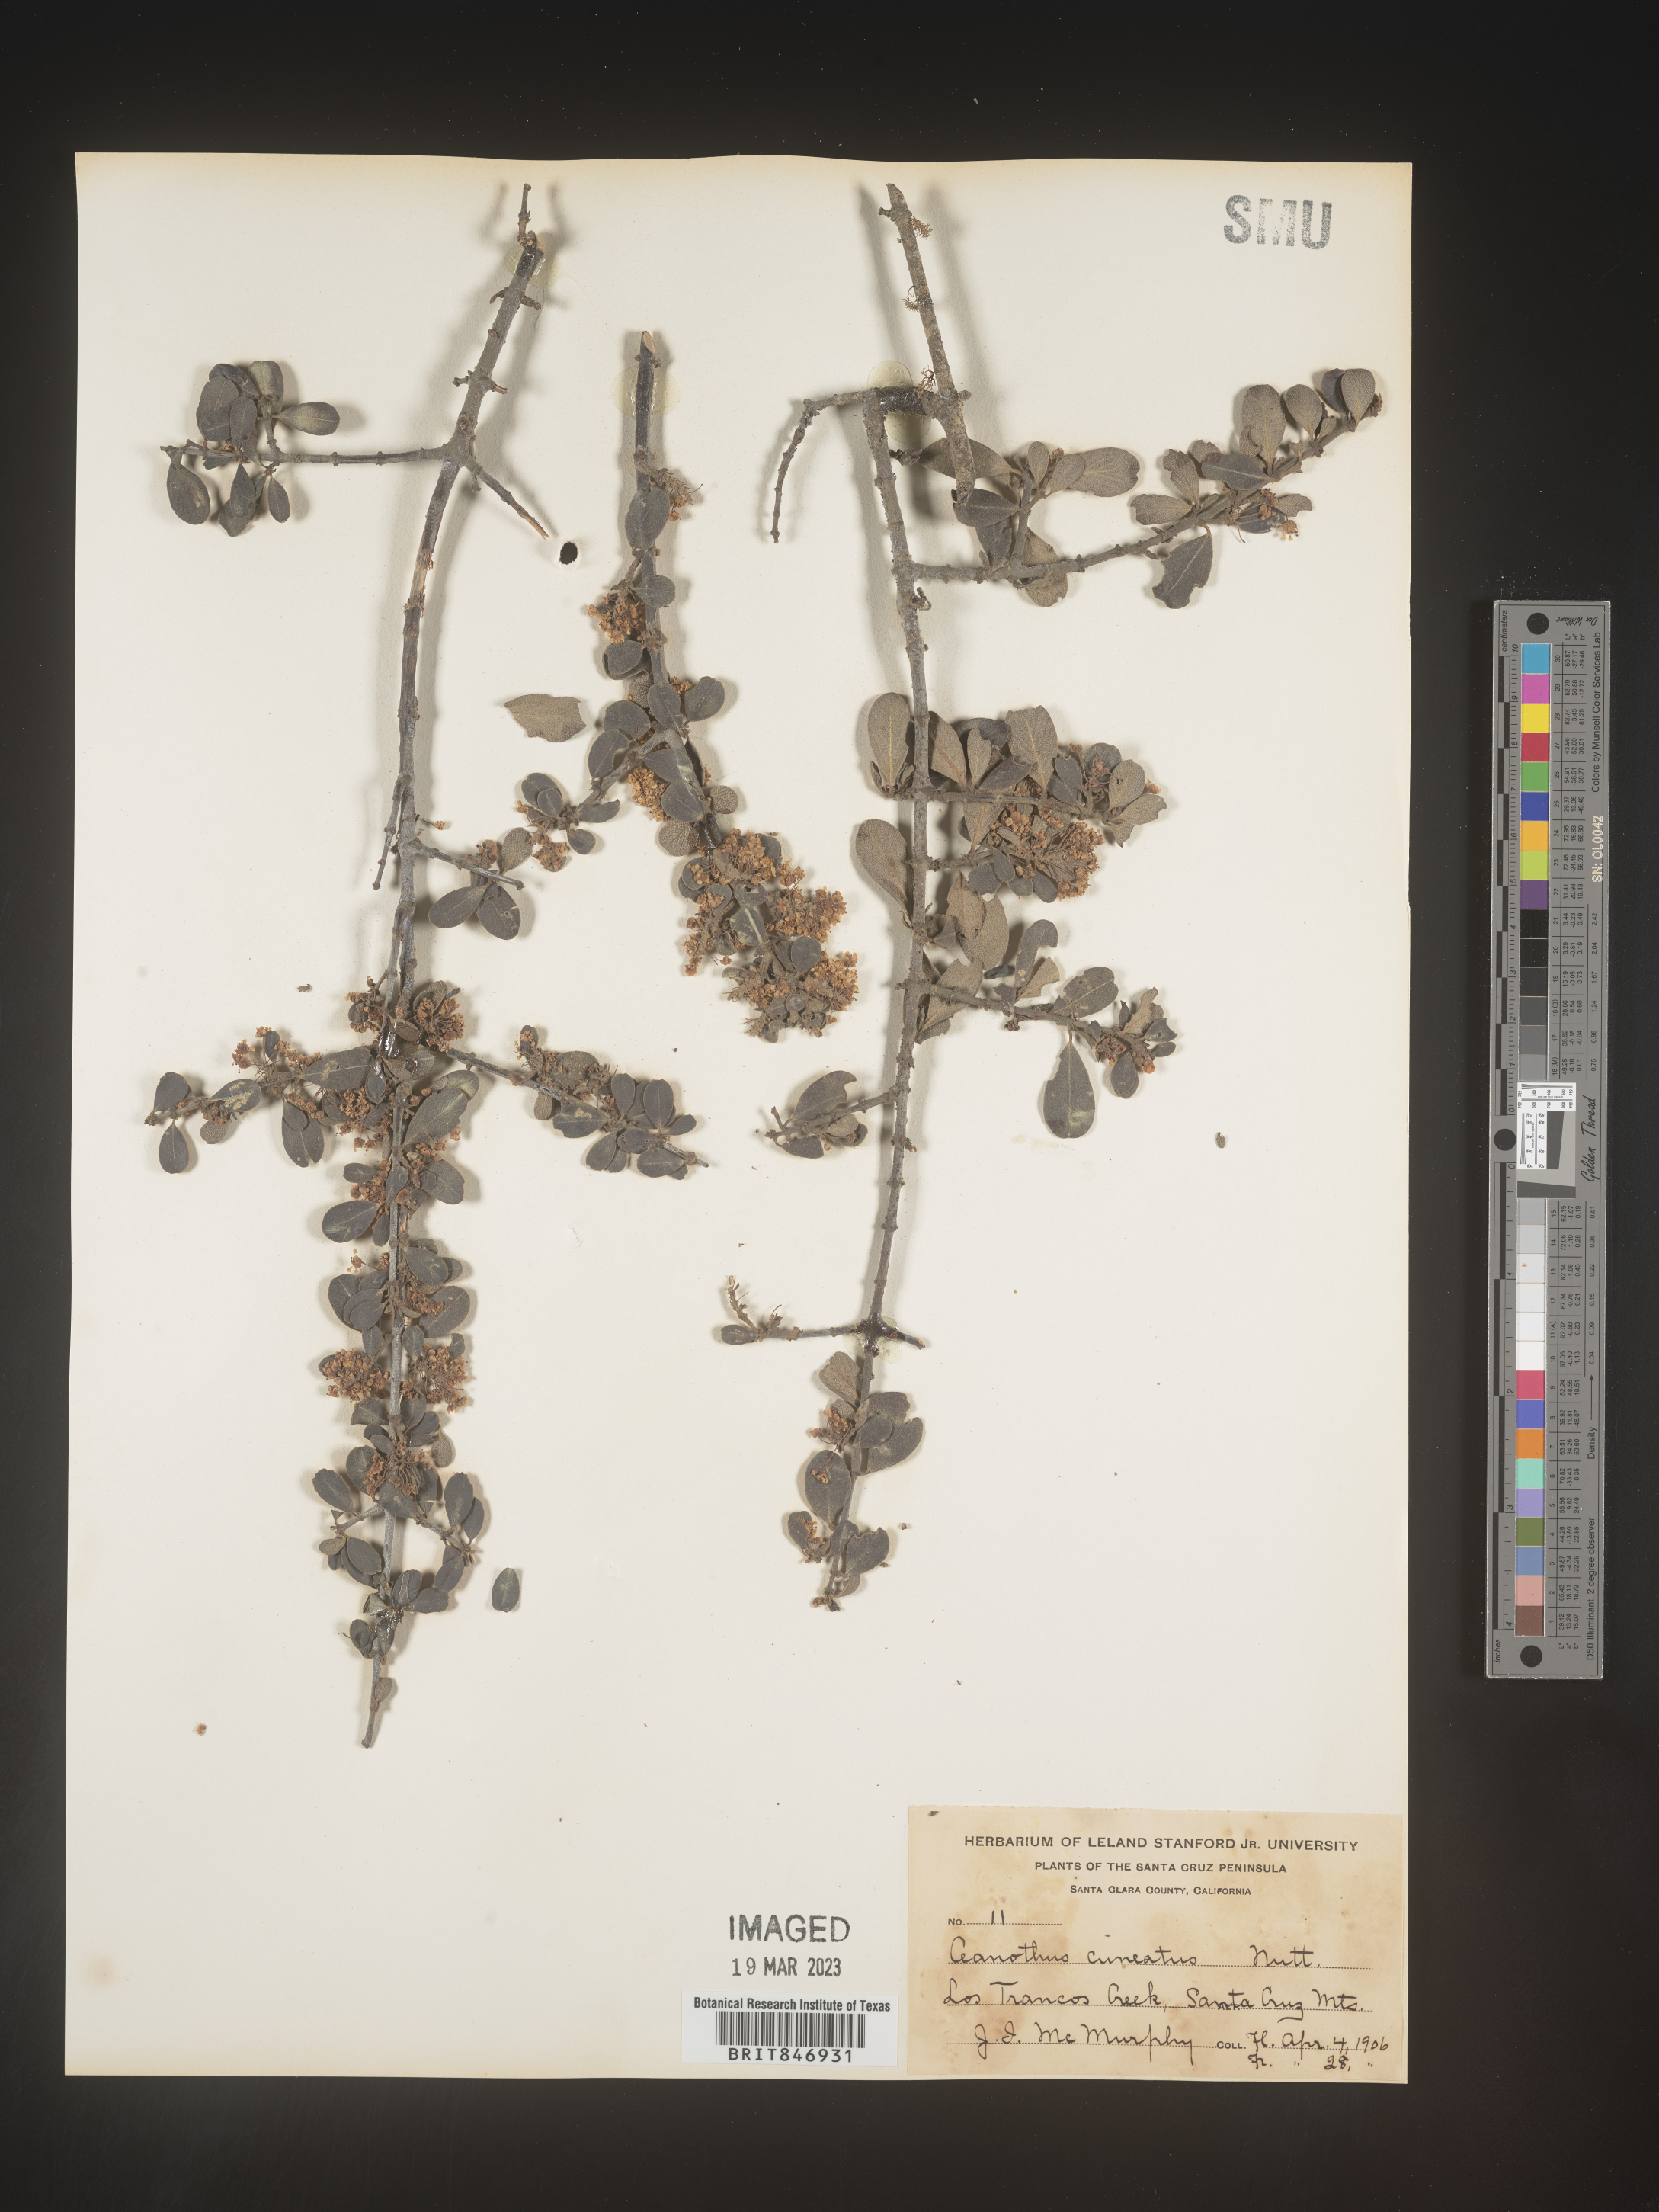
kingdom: Plantae
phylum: Tracheophyta
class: Magnoliopsida
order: Rosales
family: Rhamnaceae
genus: Ceanothus
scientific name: Ceanothus cuneatus
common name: Cuneate ceanothus
